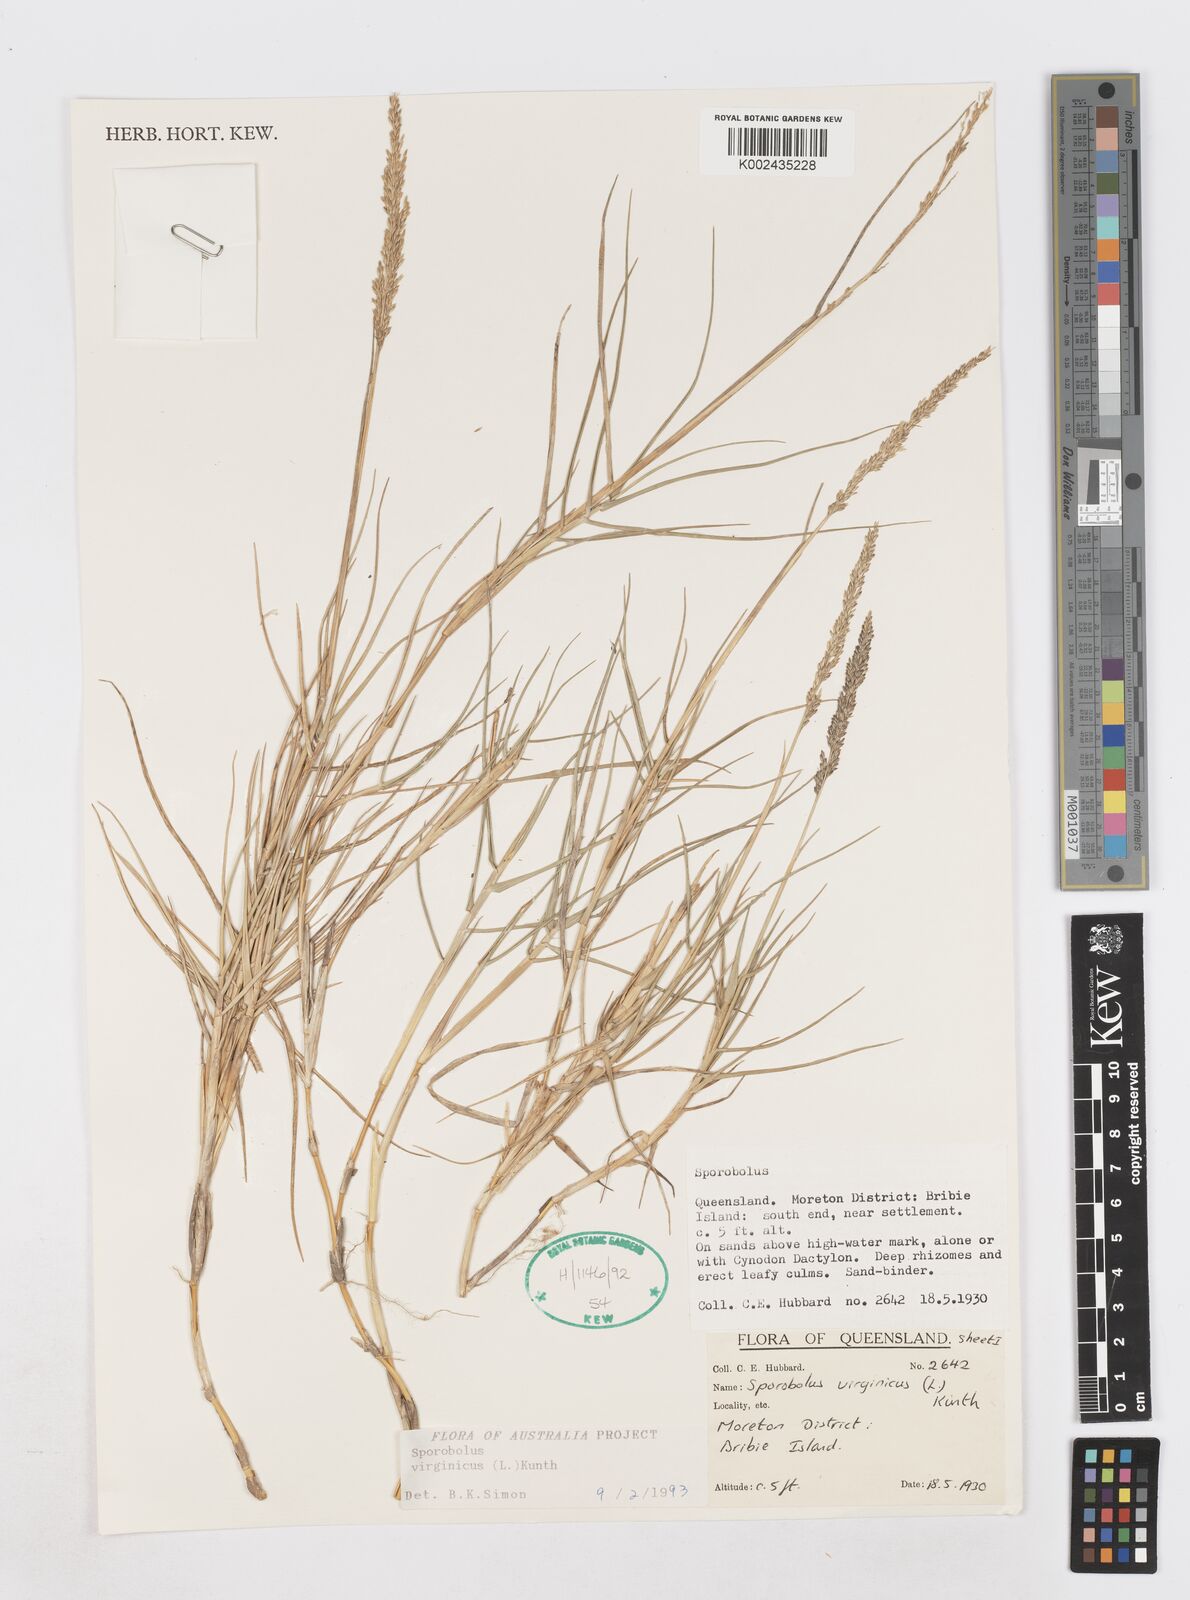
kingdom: Plantae
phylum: Tracheophyta
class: Liliopsida
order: Poales
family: Poaceae
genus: Sporobolus
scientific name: Sporobolus virginicus
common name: Beach dropseed
